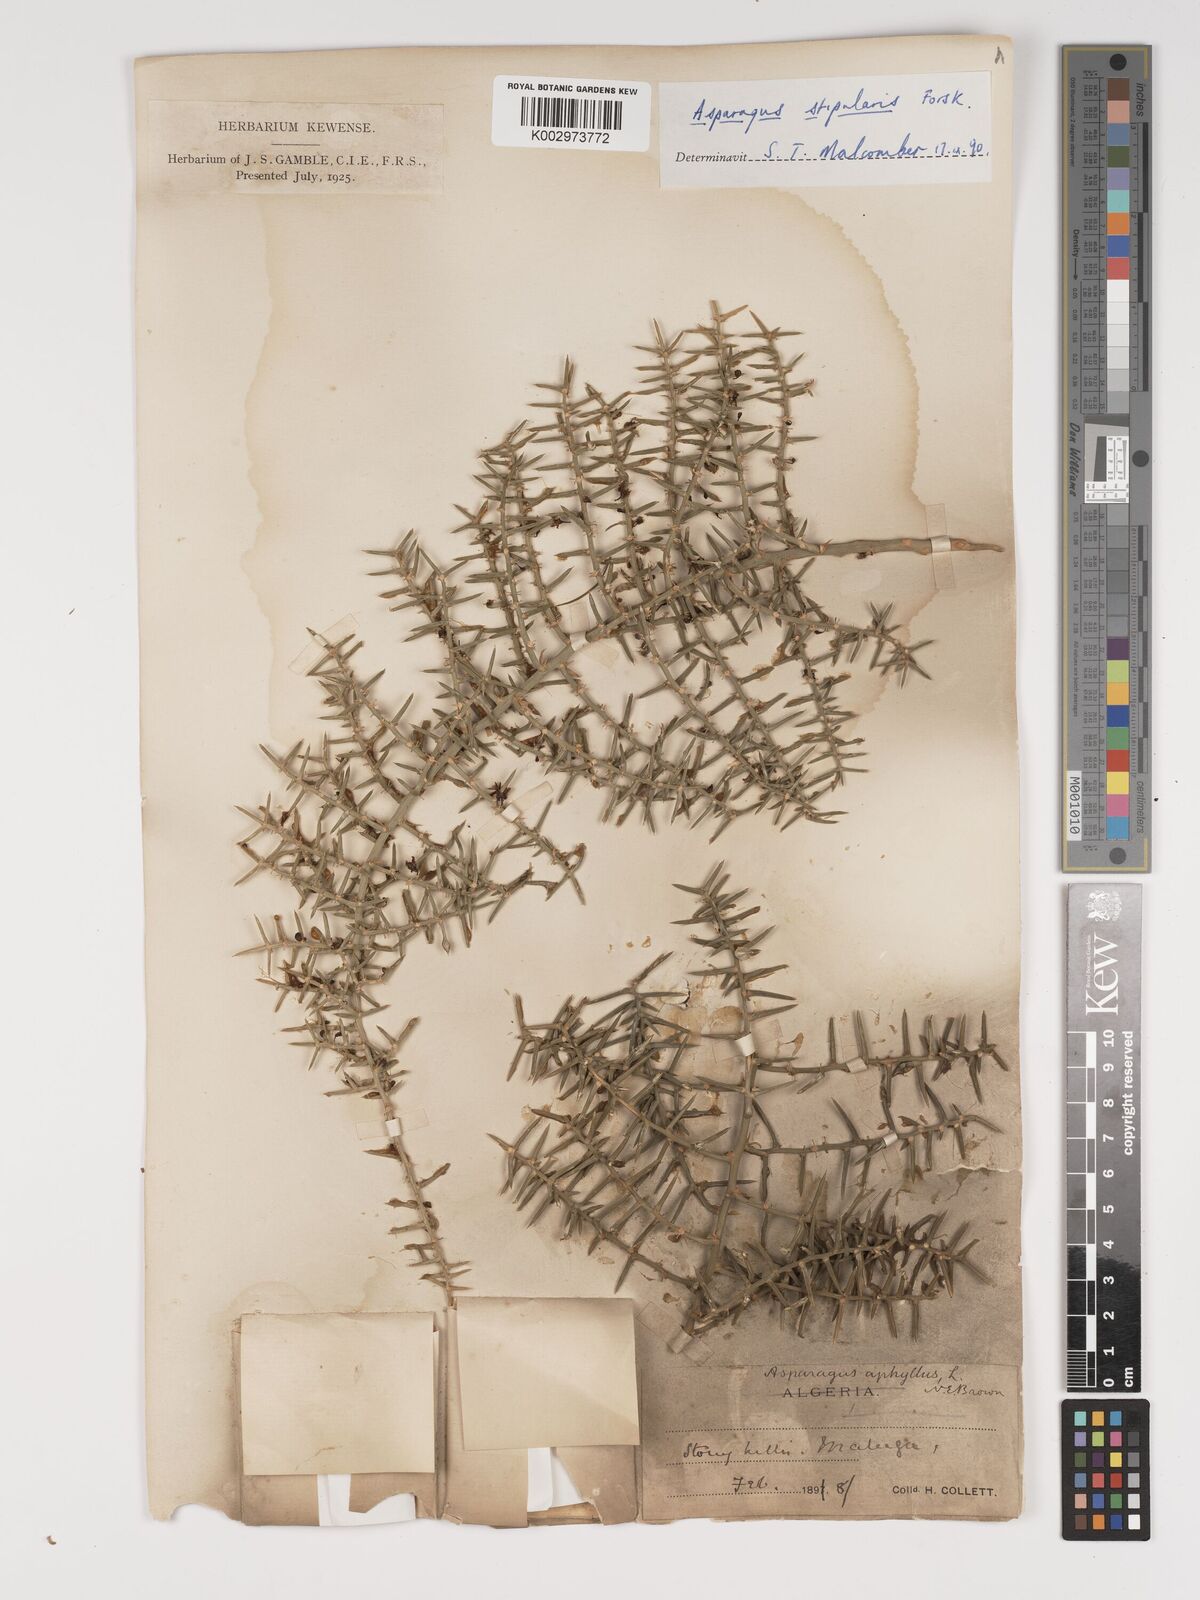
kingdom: Plantae
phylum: Tracheophyta
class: Liliopsida
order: Asparagales
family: Asparagaceae
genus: Asparagus
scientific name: Asparagus horridus
